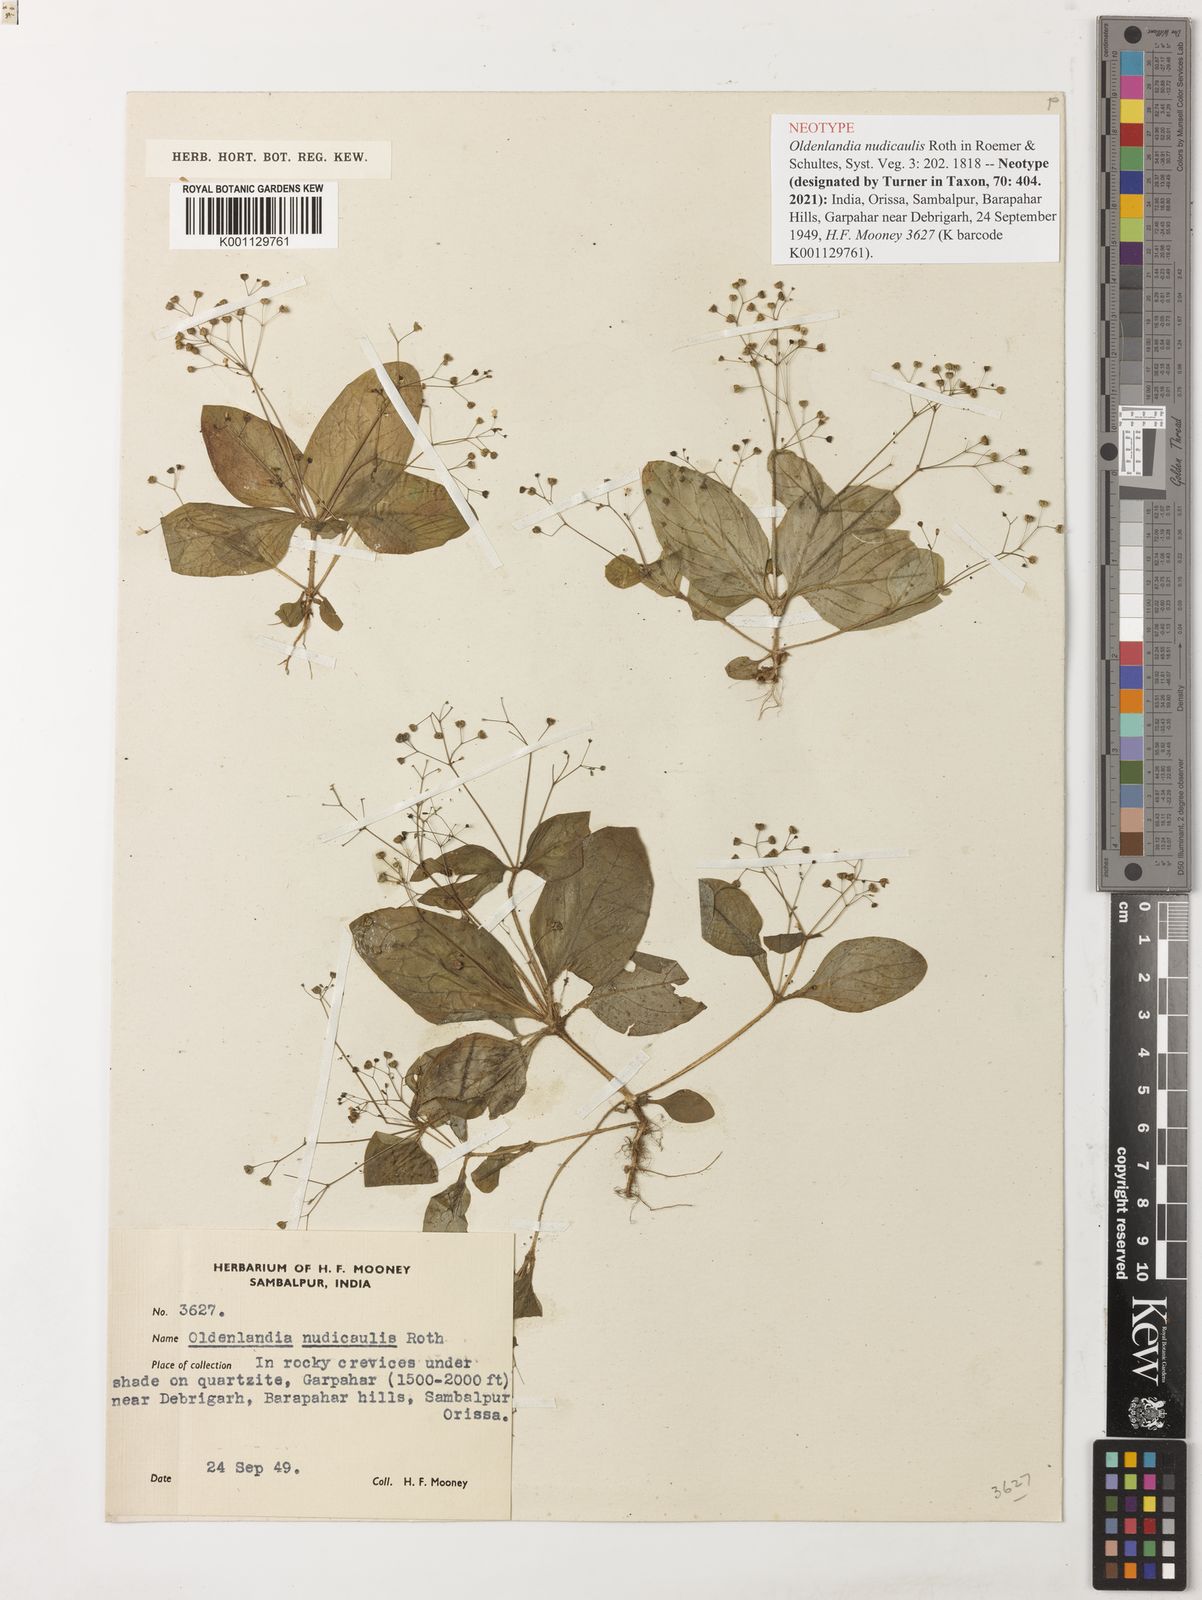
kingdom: Plantae
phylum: Tracheophyta
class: Magnoliopsida
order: Gentianales
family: Rubiaceae
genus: Debia
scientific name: Debia ovatifolia
